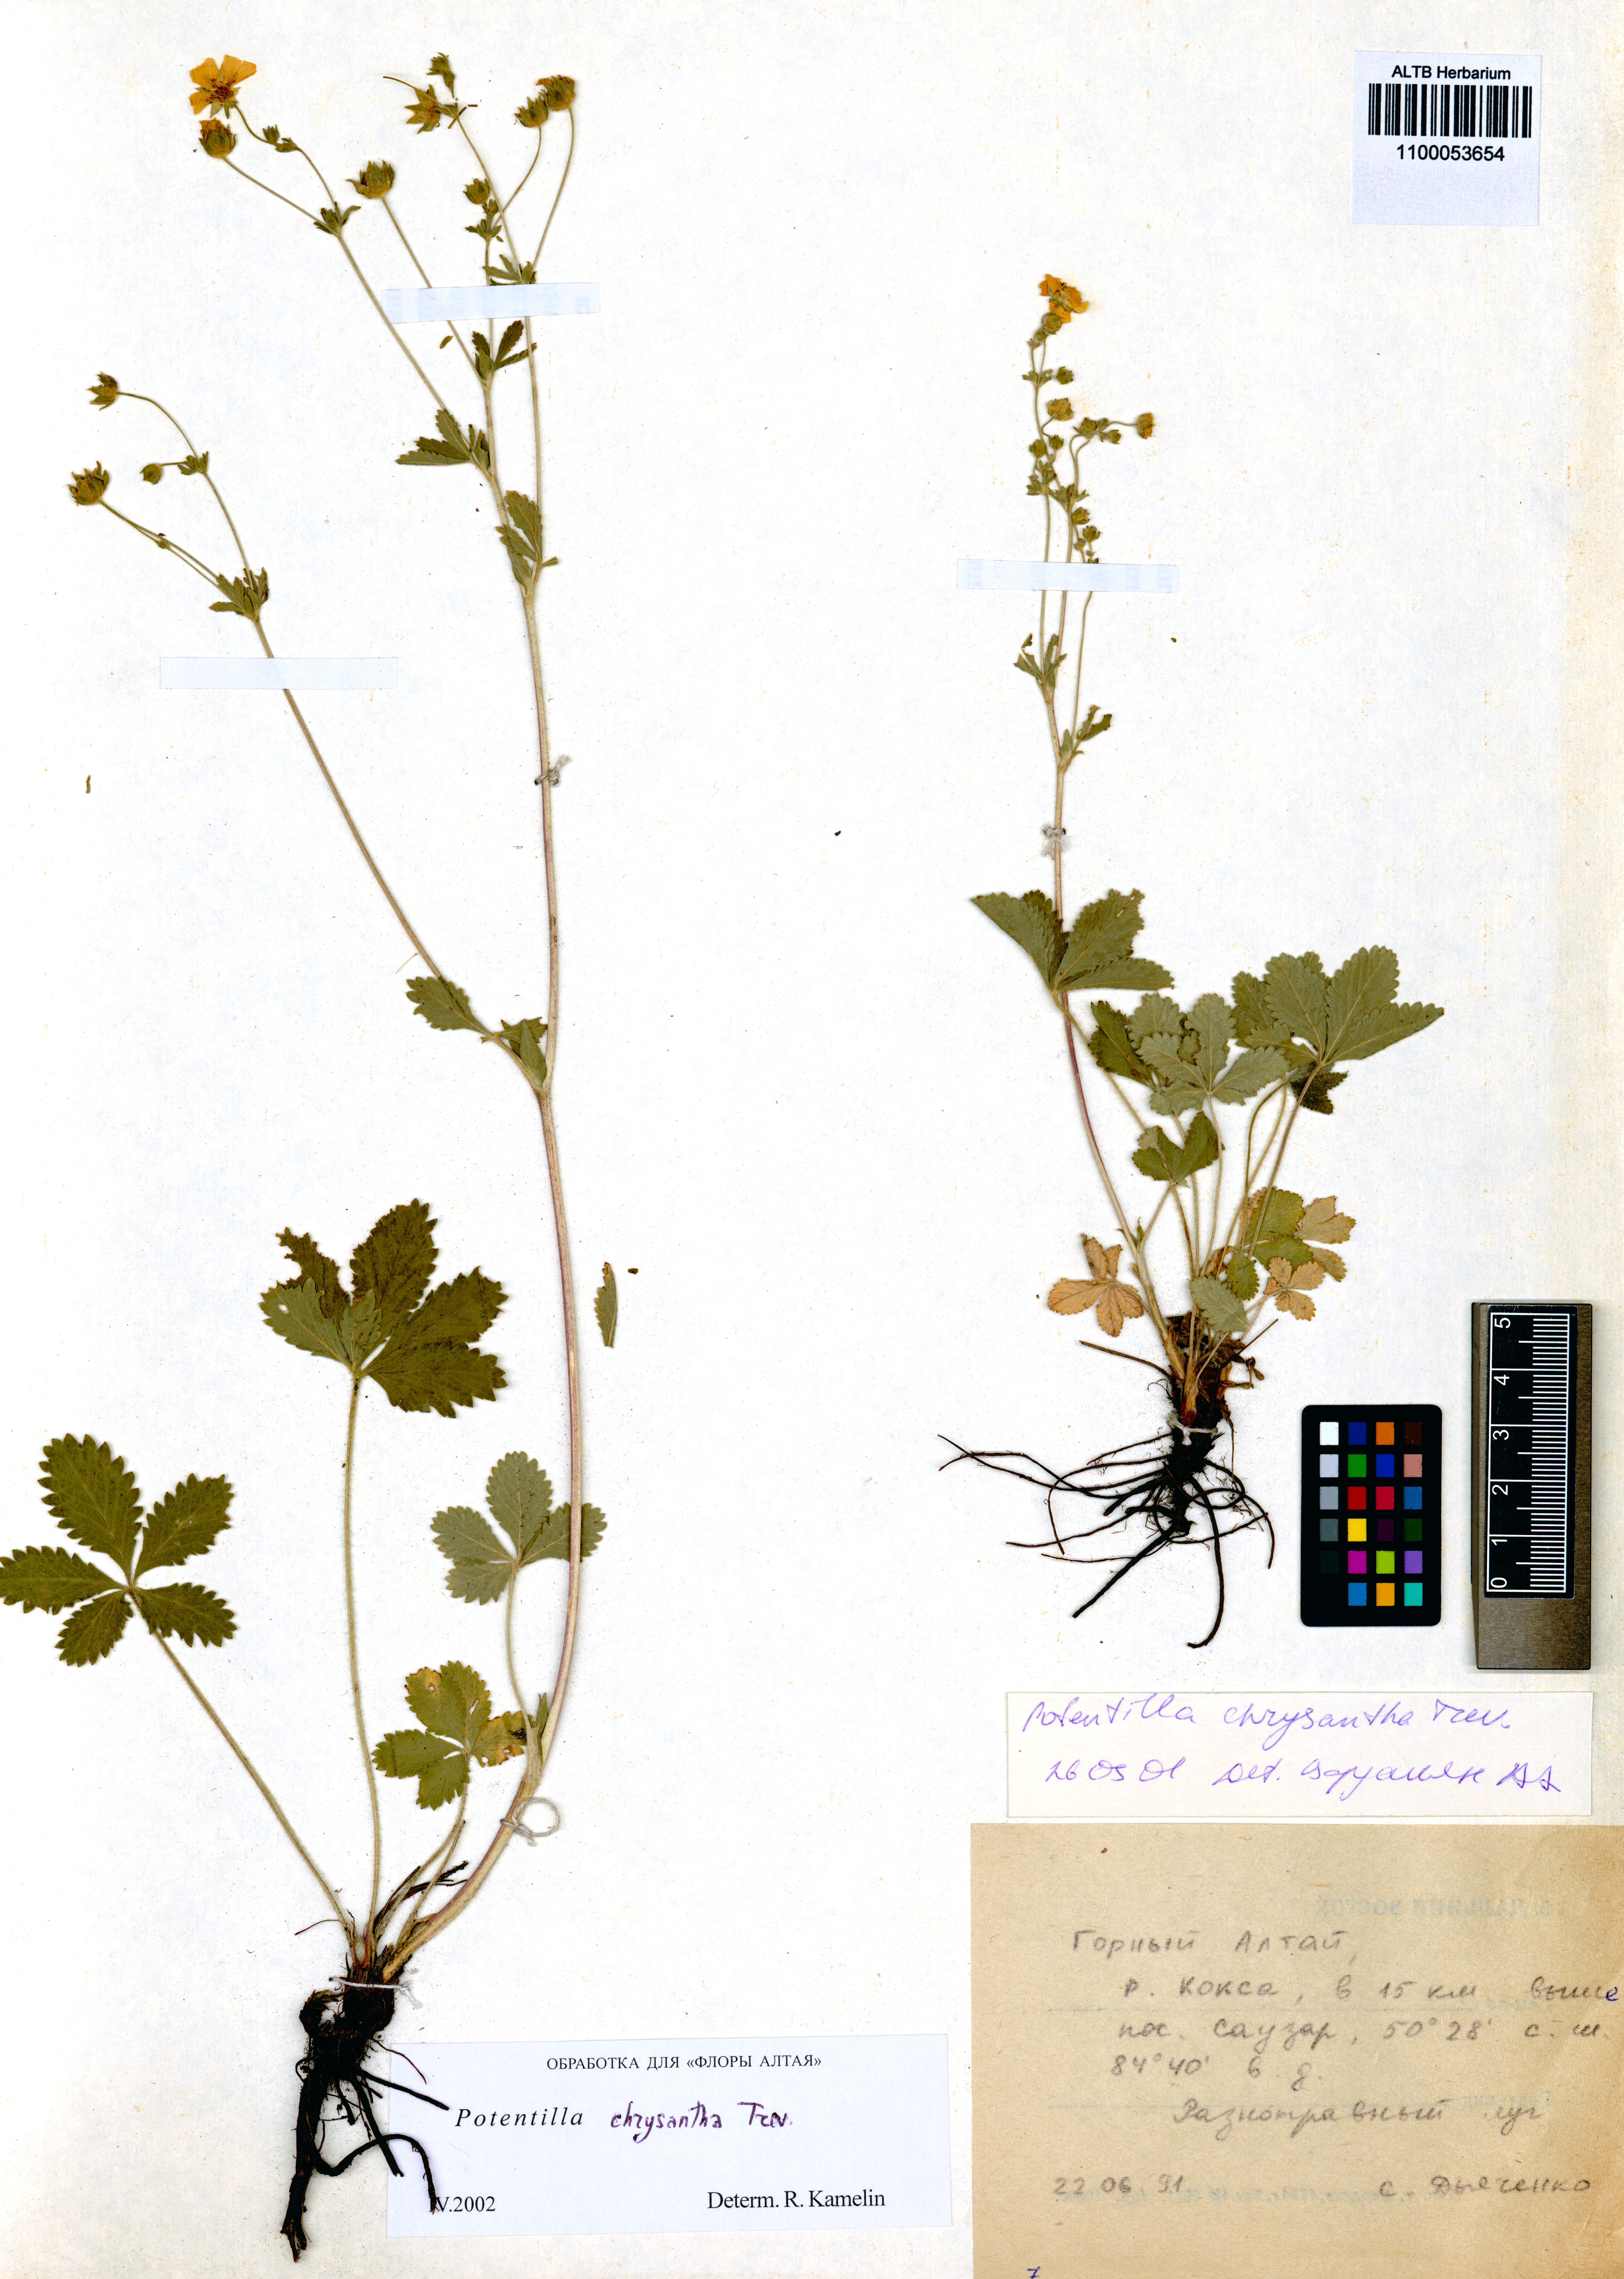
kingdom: Plantae
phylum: Tracheophyta
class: Magnoliopsida
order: Rosales
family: Rosaceae
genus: Potentilla
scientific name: Potentilla chrysantha
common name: Thuringian cinquefoil
